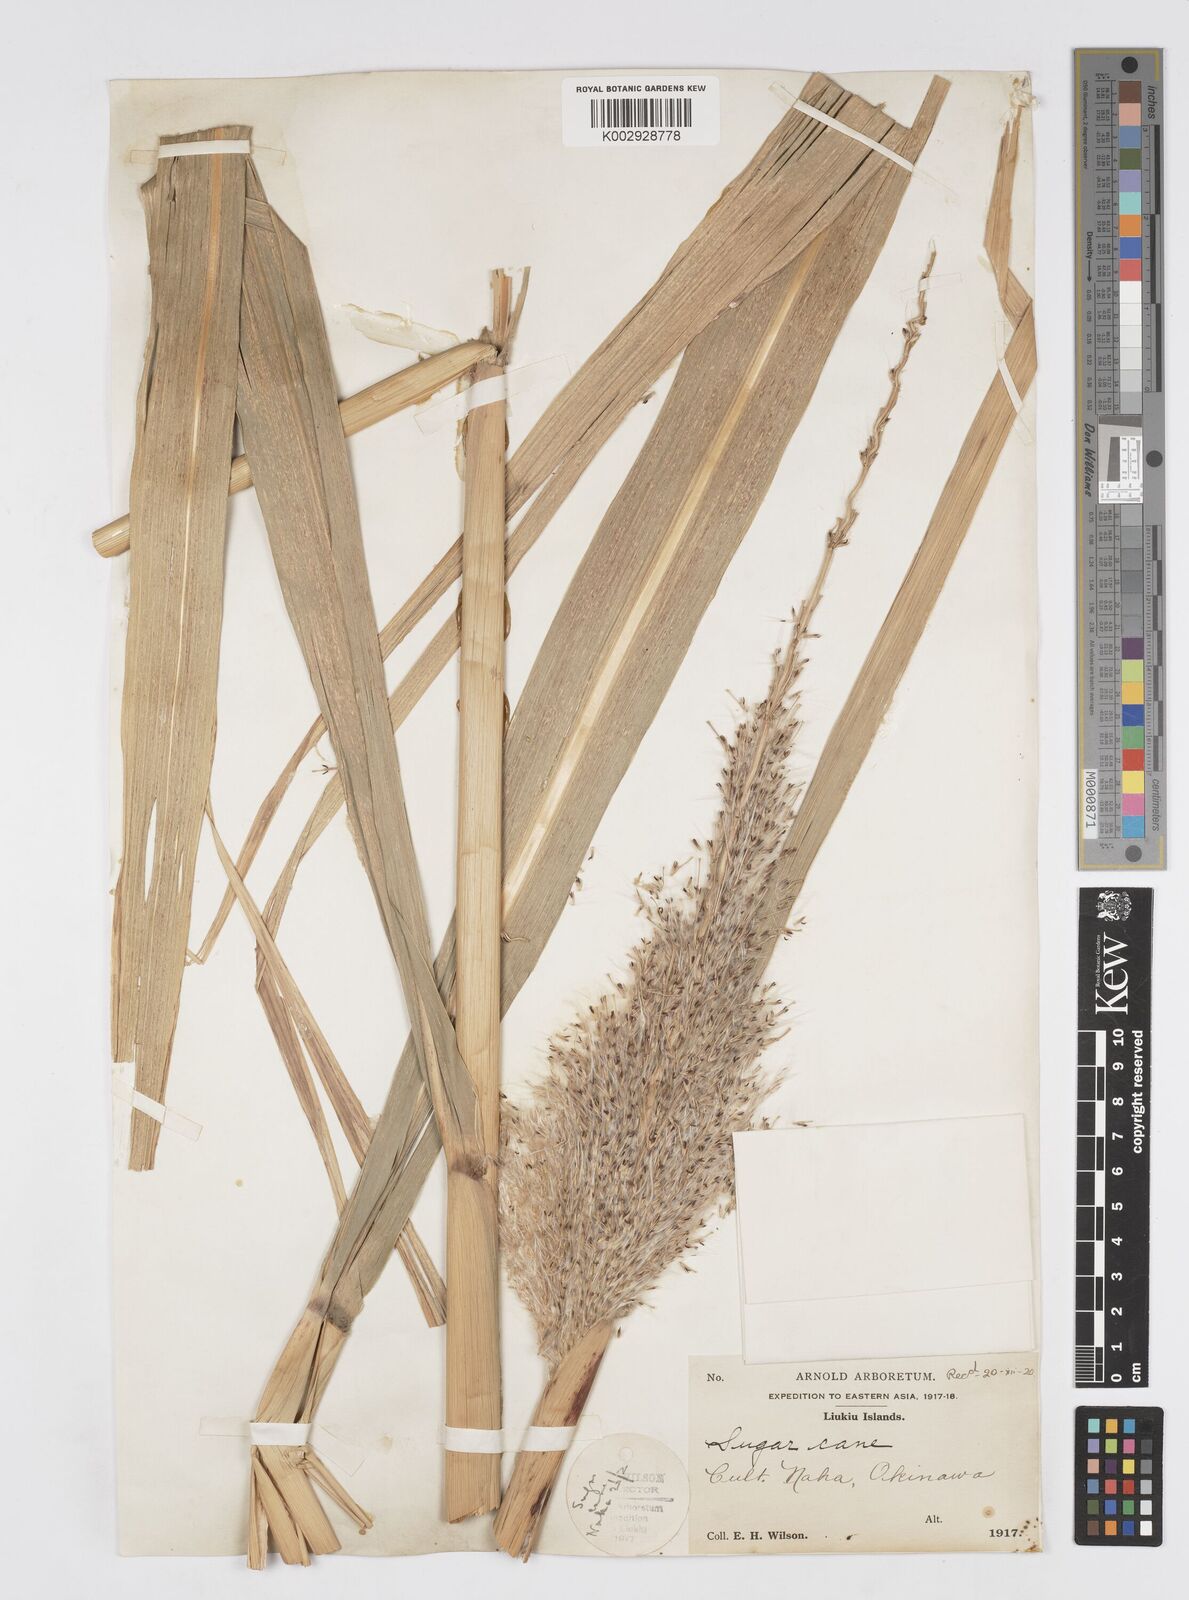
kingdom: Plantae
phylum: Tracheophyta
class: Liliopsida
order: Poales
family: Poaceae
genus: Saccharum
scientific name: Saccharum officinarum
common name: Sugarcane
